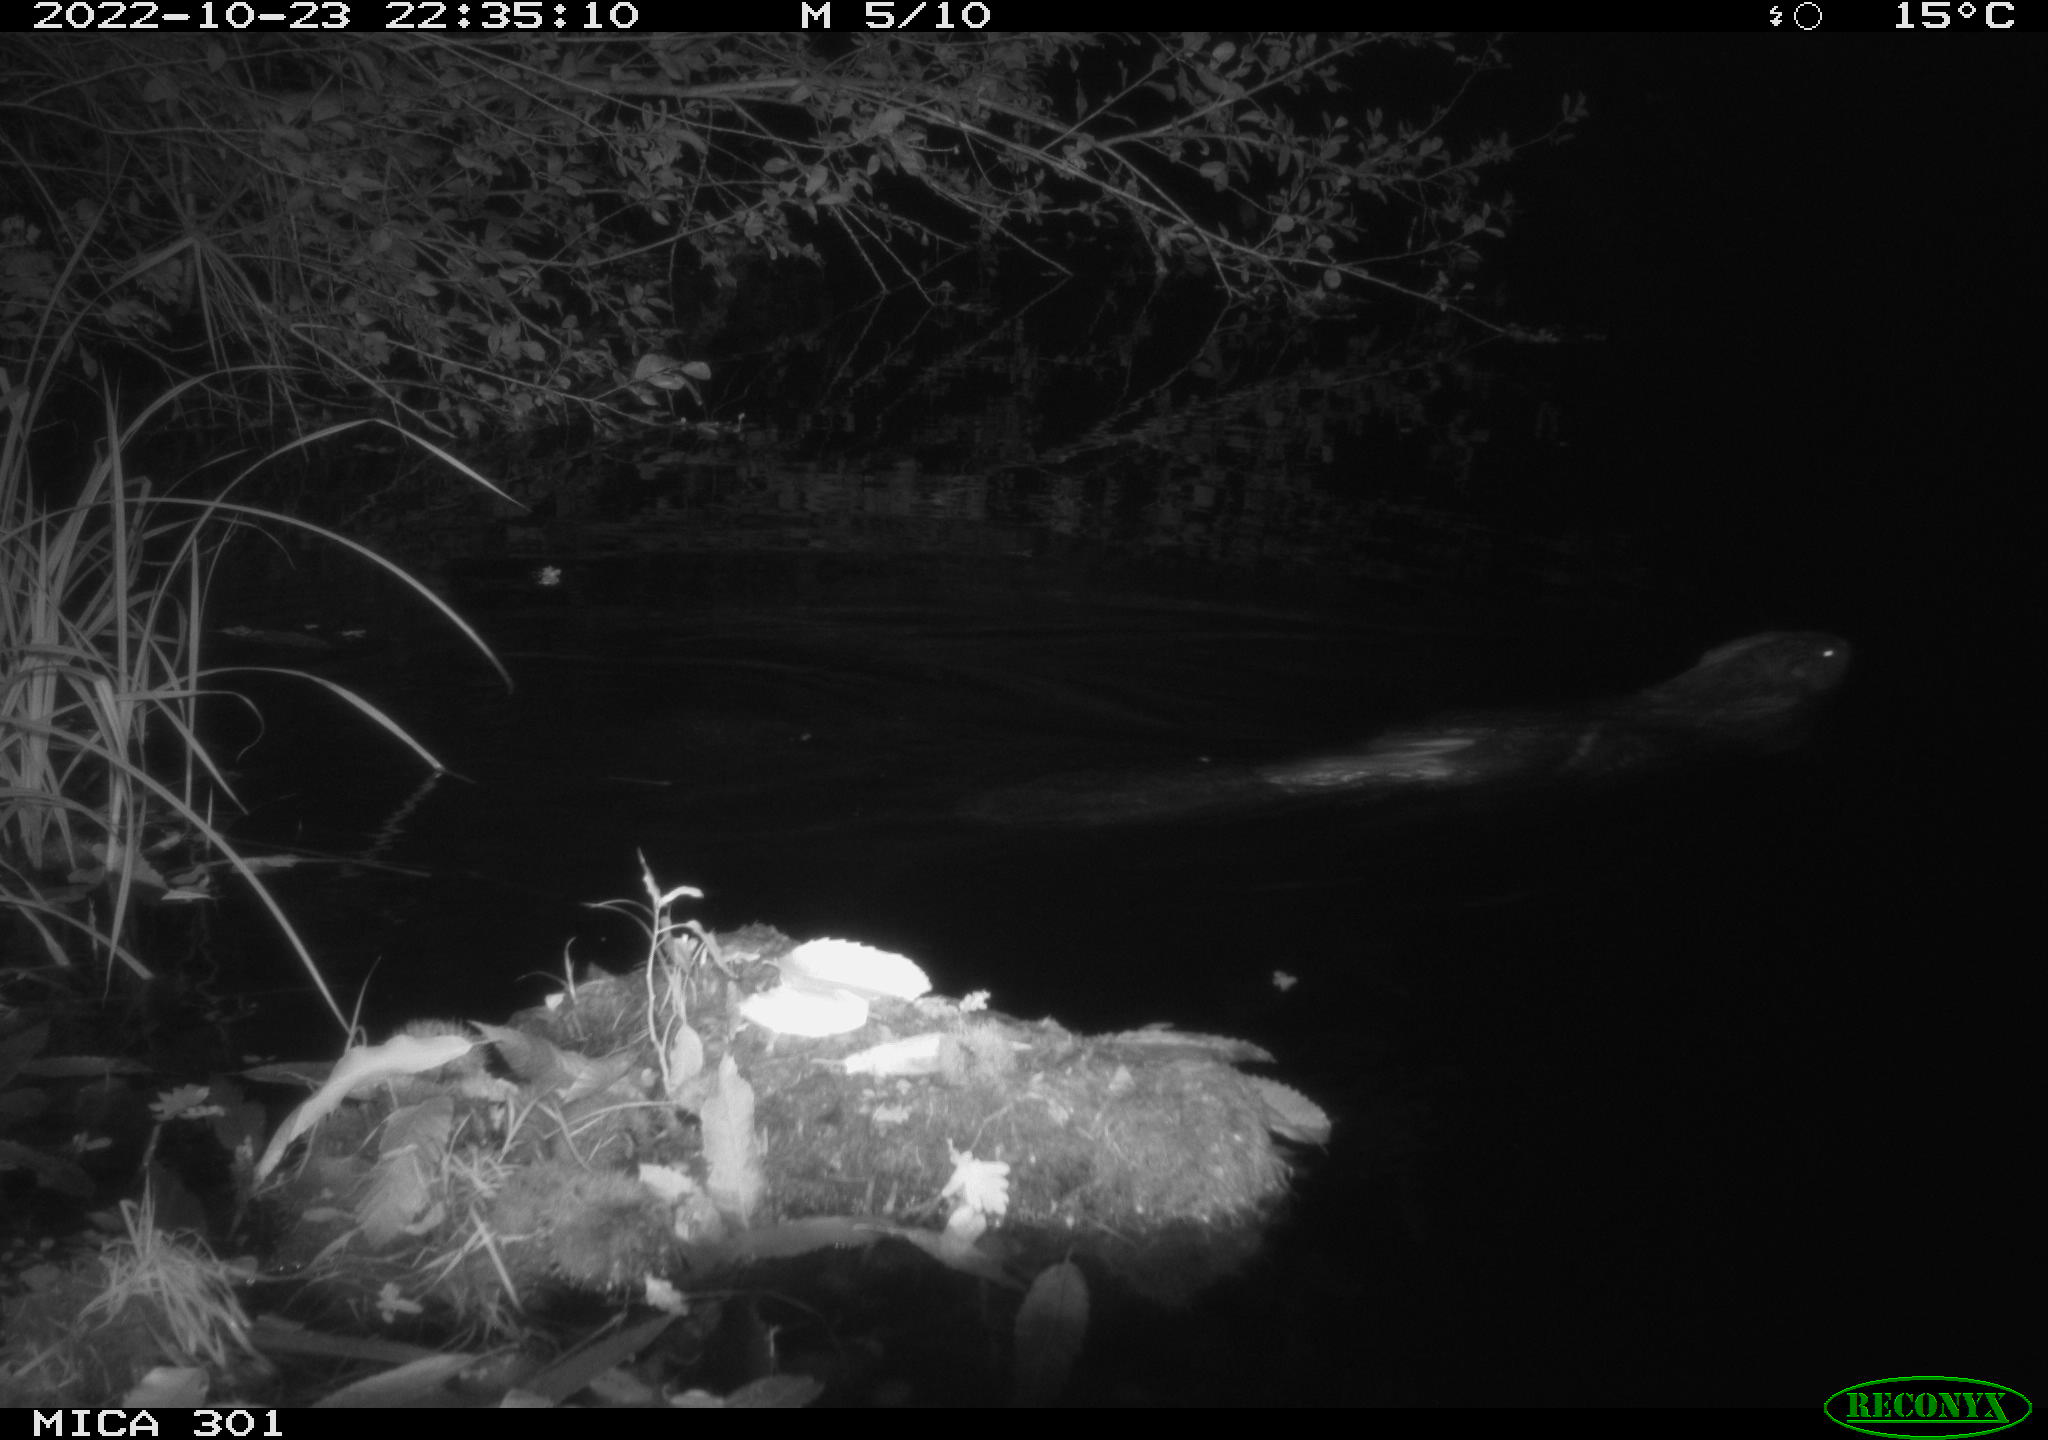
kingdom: Animalia
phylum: Chordata
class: Mammalia
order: Rodentia
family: Castoridae
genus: Castor
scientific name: Castor fiber
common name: Eurasian beaver
